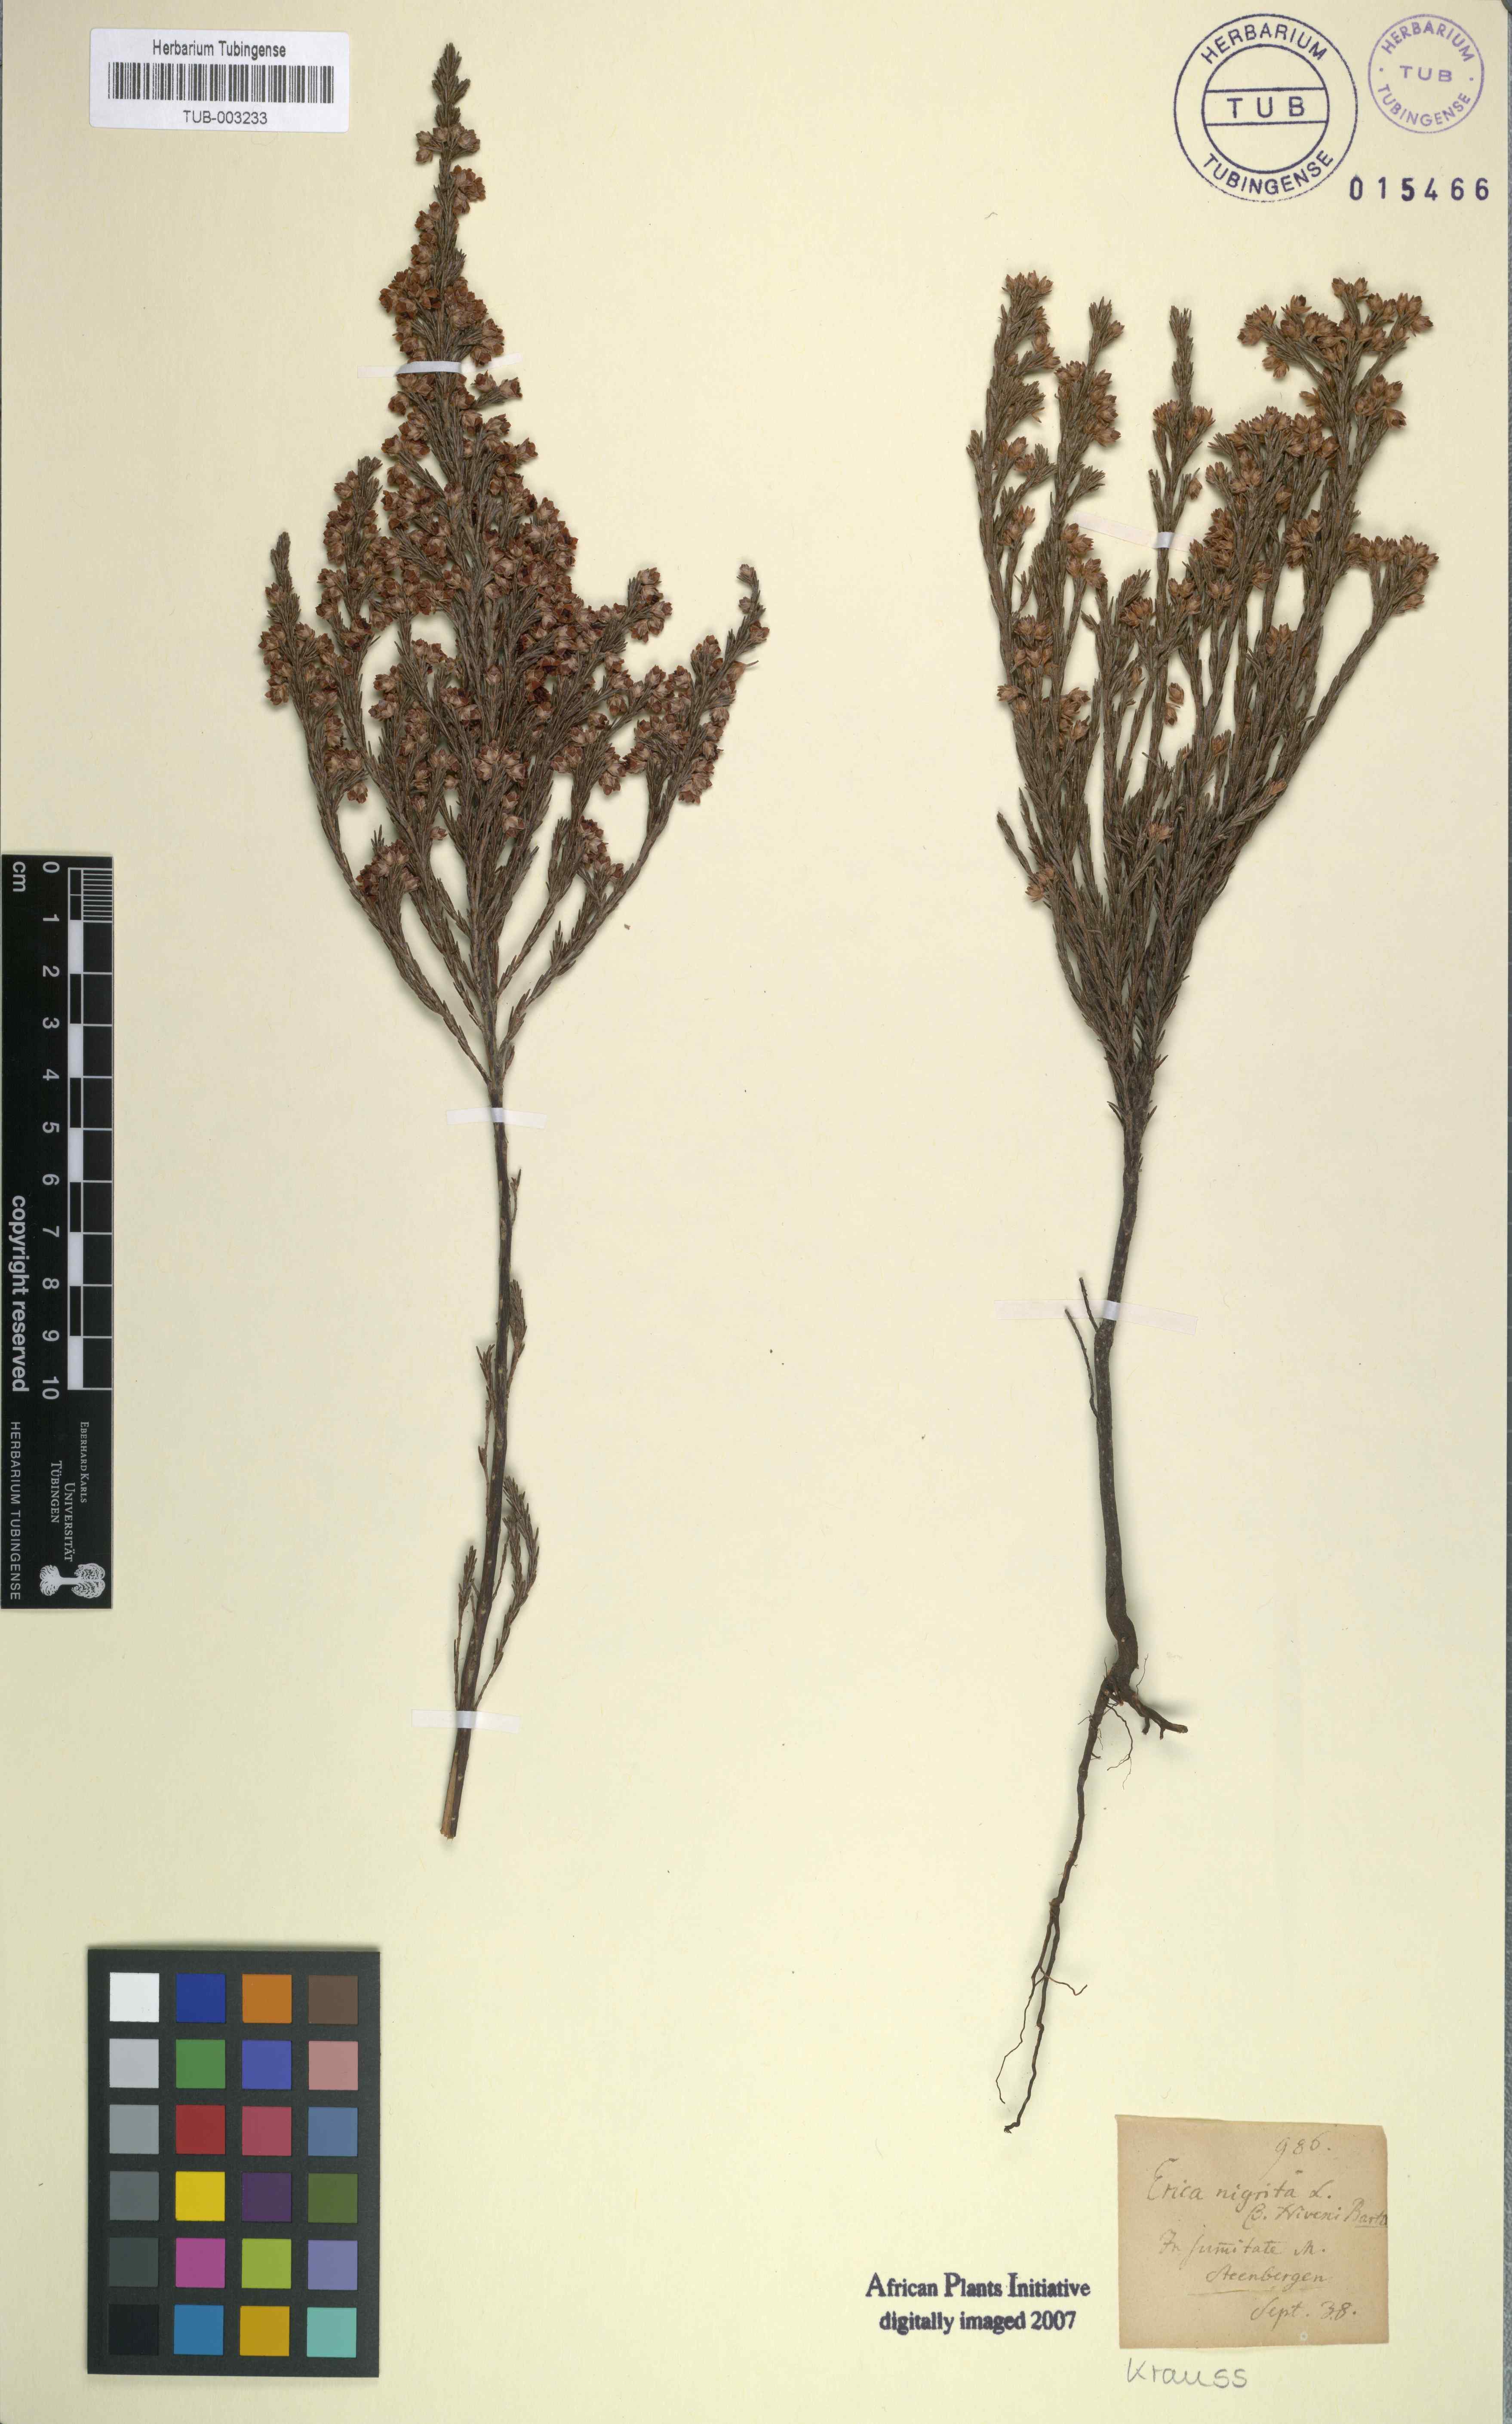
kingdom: Plantae
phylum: Tracheophyta
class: Magnoliopsida
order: Ericales
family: Ericaceae
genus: Erica
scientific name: Erica calycina
